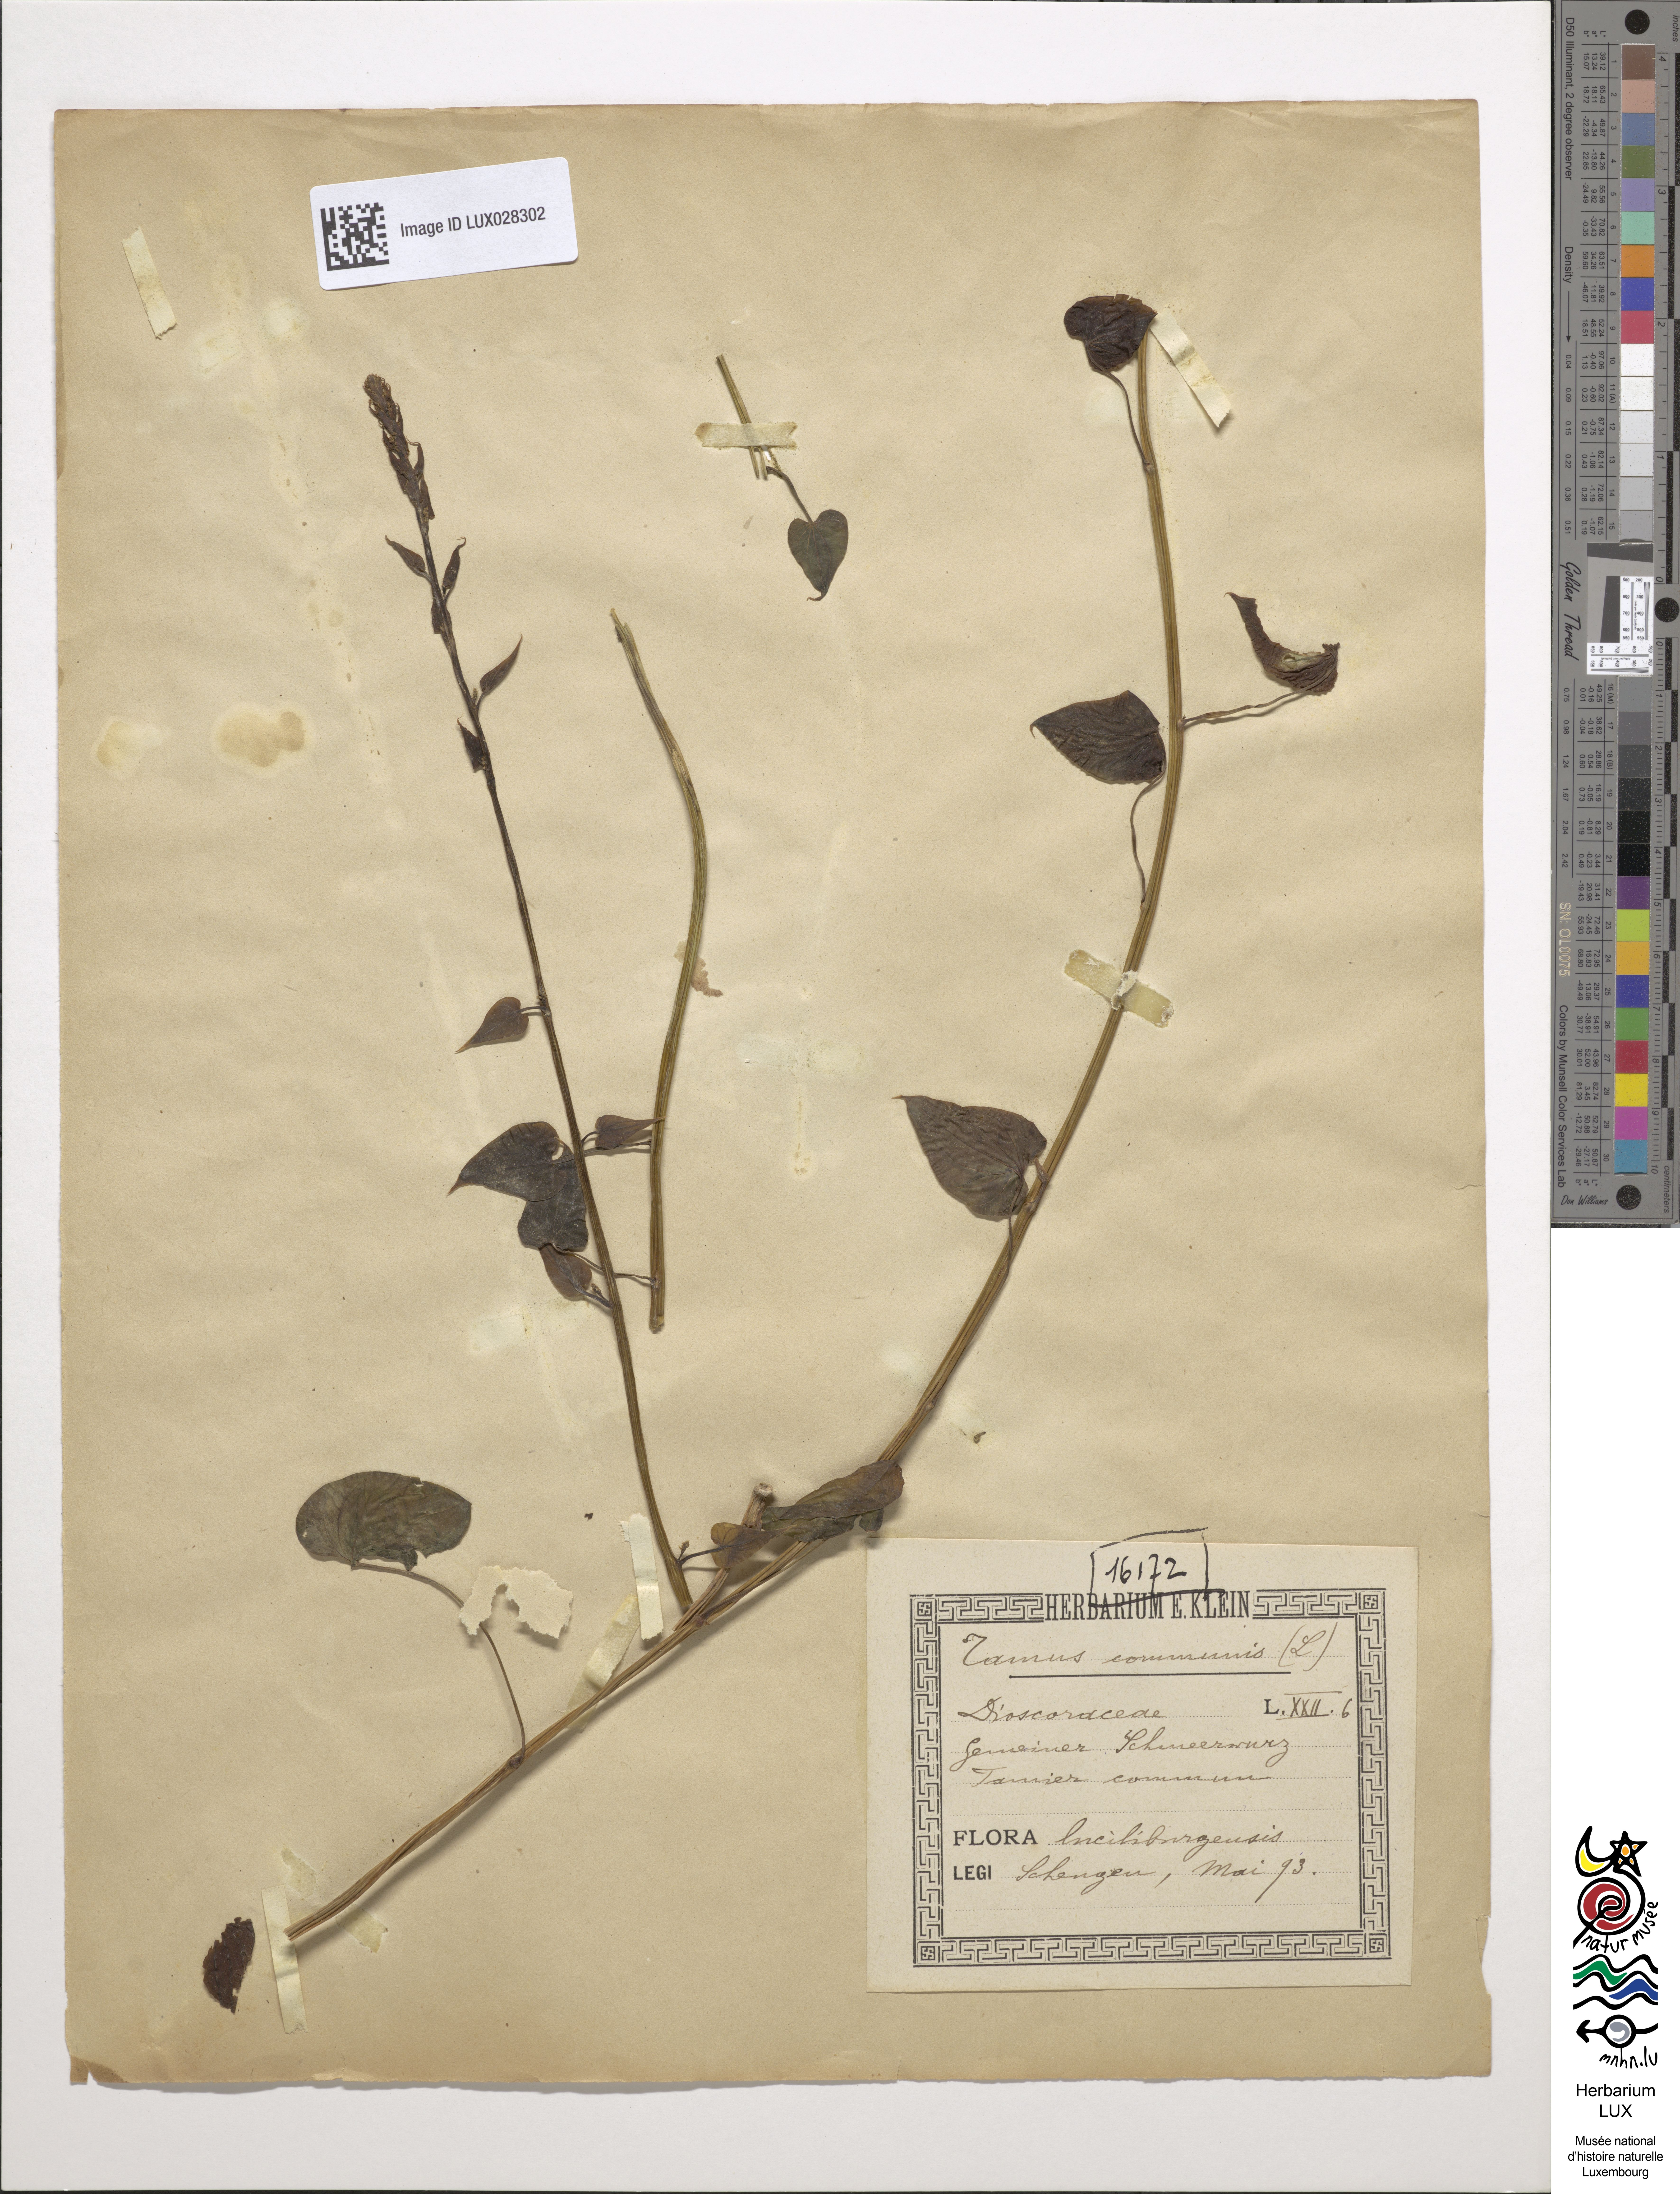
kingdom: Plantae
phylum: Tracheophyta
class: Liliopsida
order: Dioscoreales
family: Dioscoreaceae
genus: Dioscorea
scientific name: Dioscorea communis
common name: Black-bindweed
